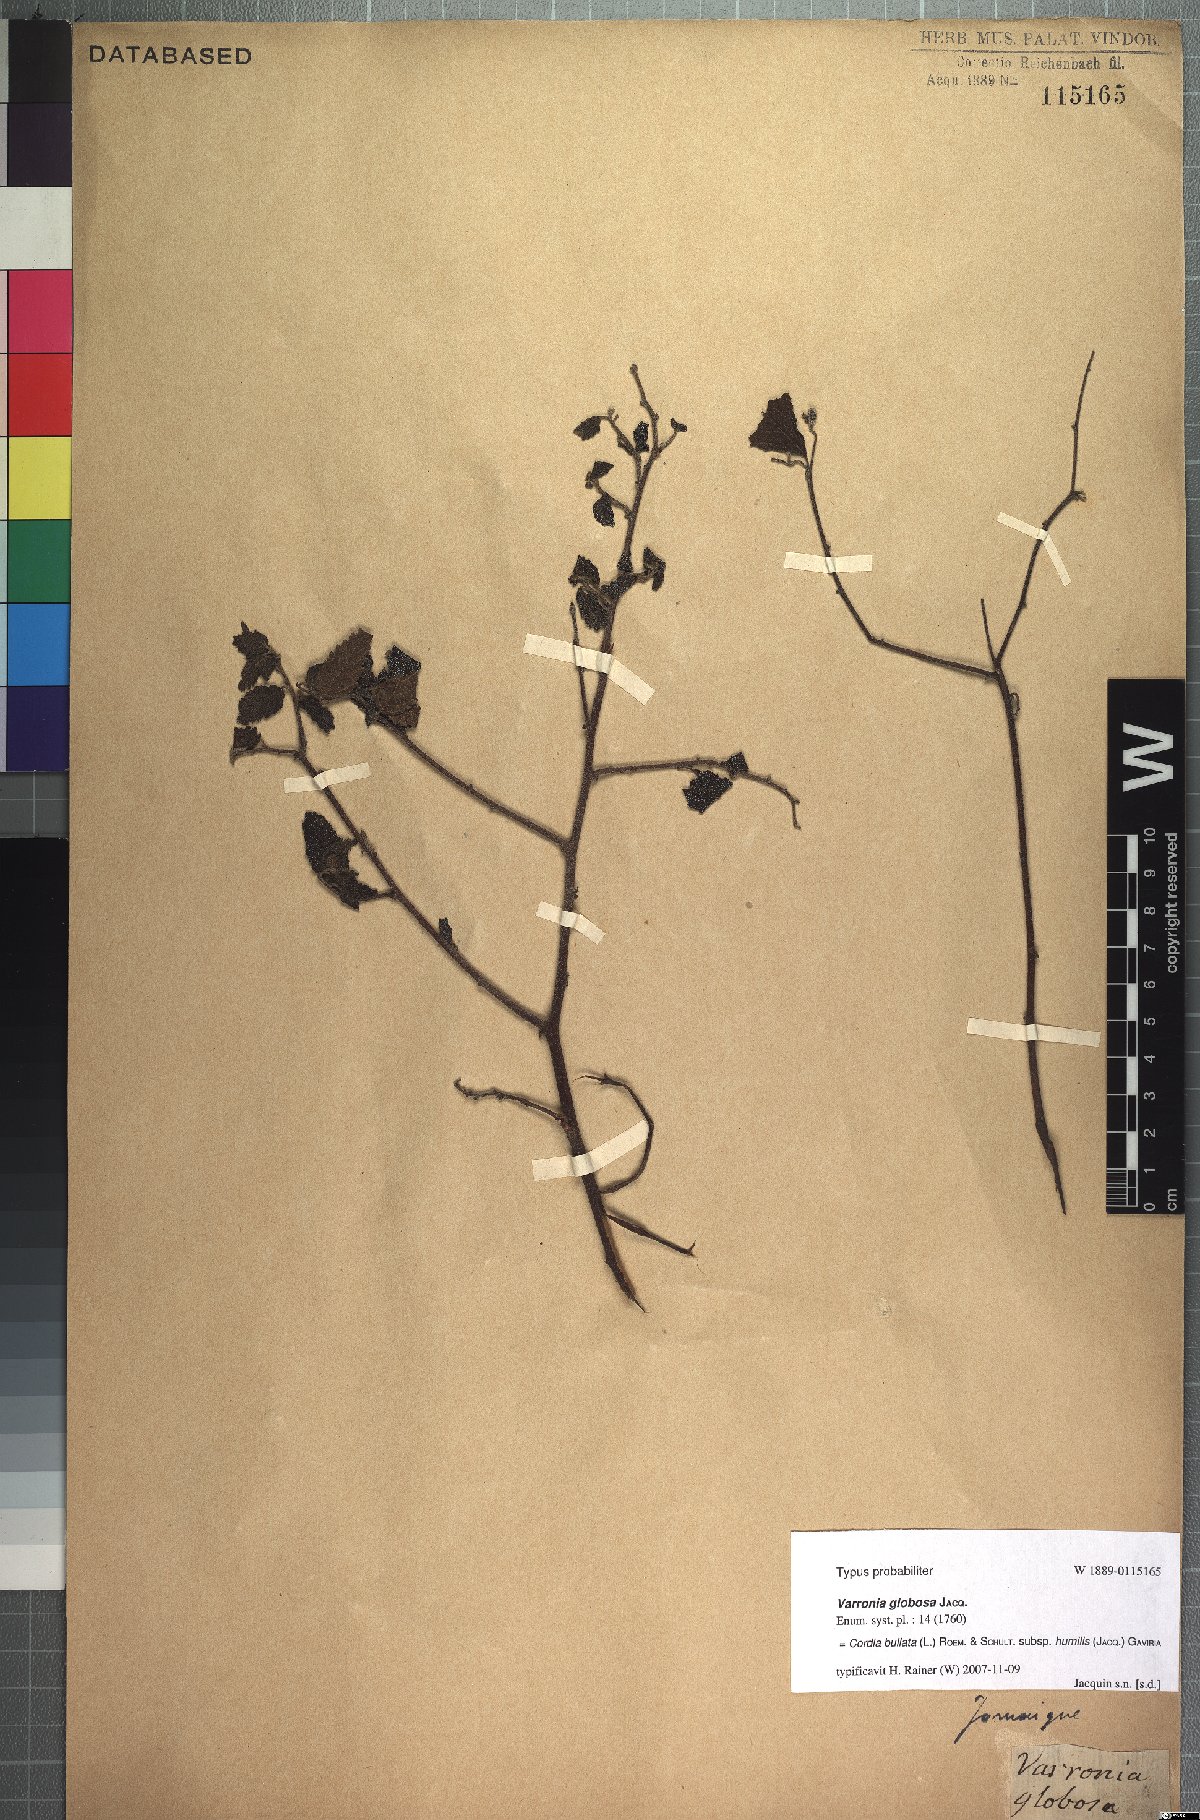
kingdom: Plantae
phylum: Tracheophyta
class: Magnoliopsida
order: Boraginales
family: Cordiaceae
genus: Varronia
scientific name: Varronia bullata
